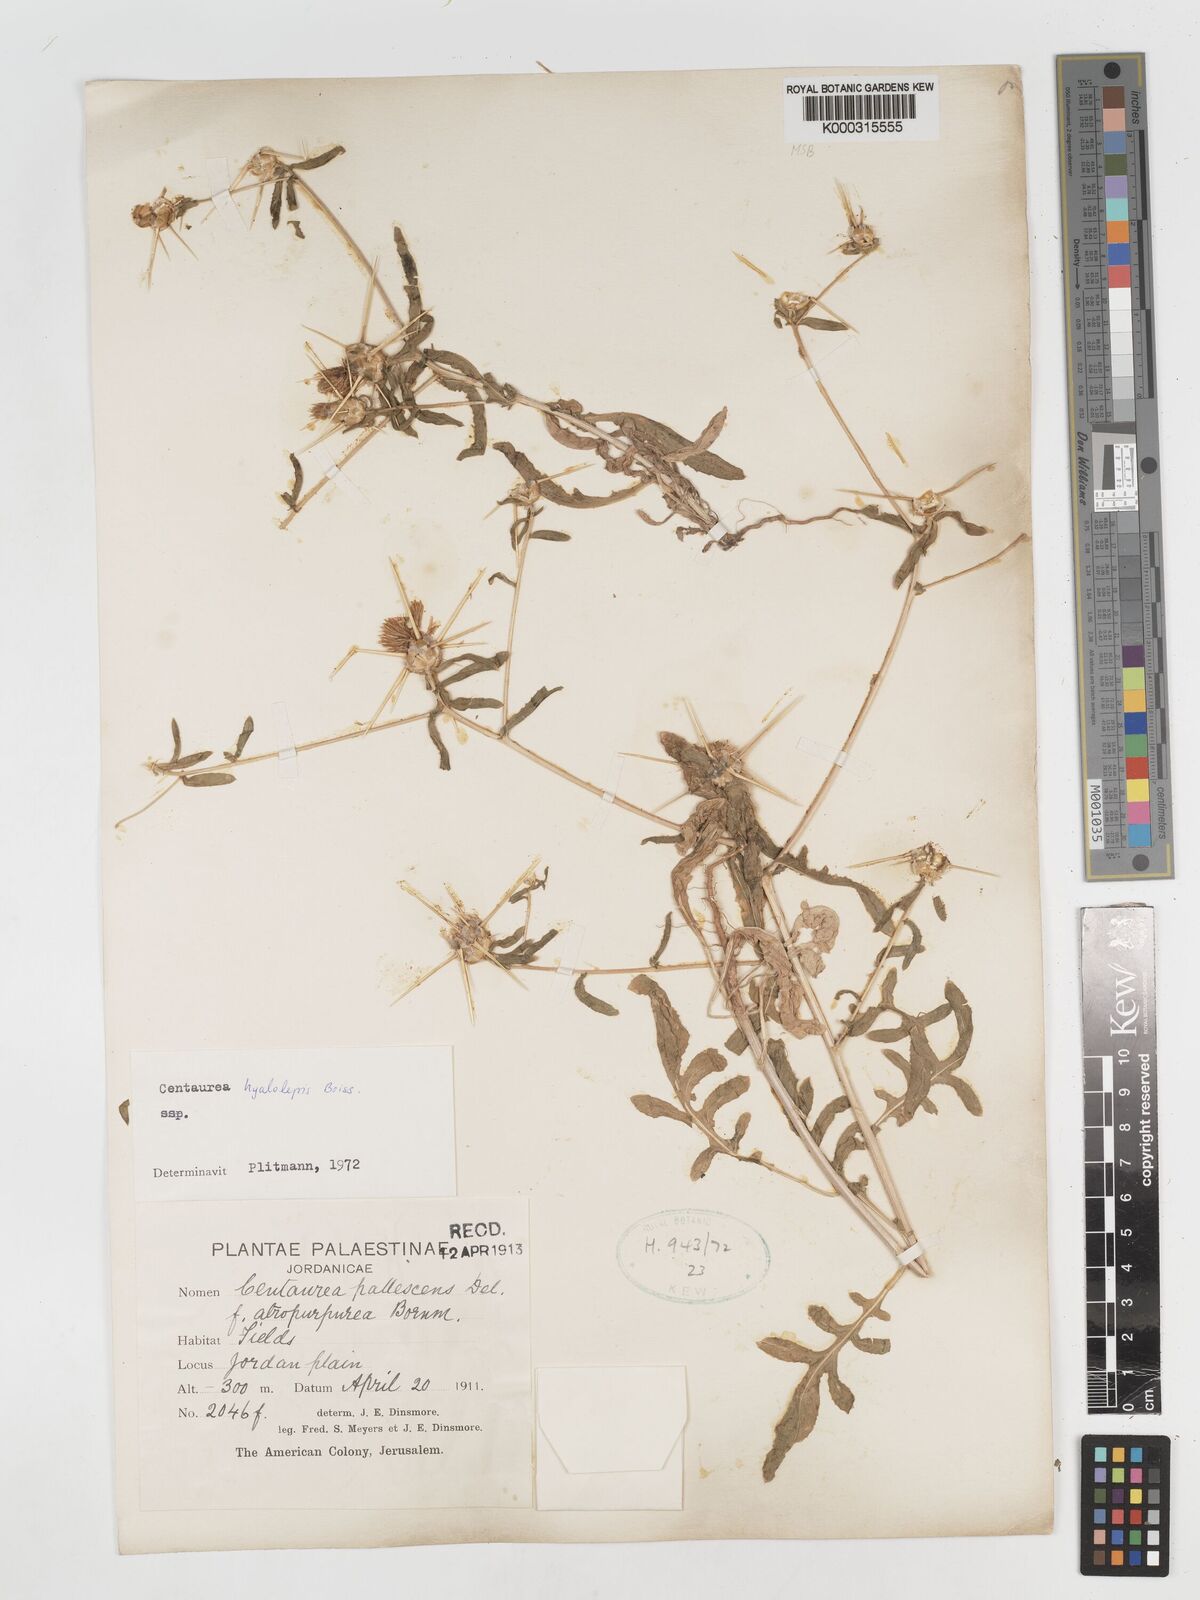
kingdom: Plantae
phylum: Tracheophyta
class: Magnoliopsida
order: Asterales
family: Asteraceae
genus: Centaurea
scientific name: Centaurea hyalolepis
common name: Eastern star-thistle
